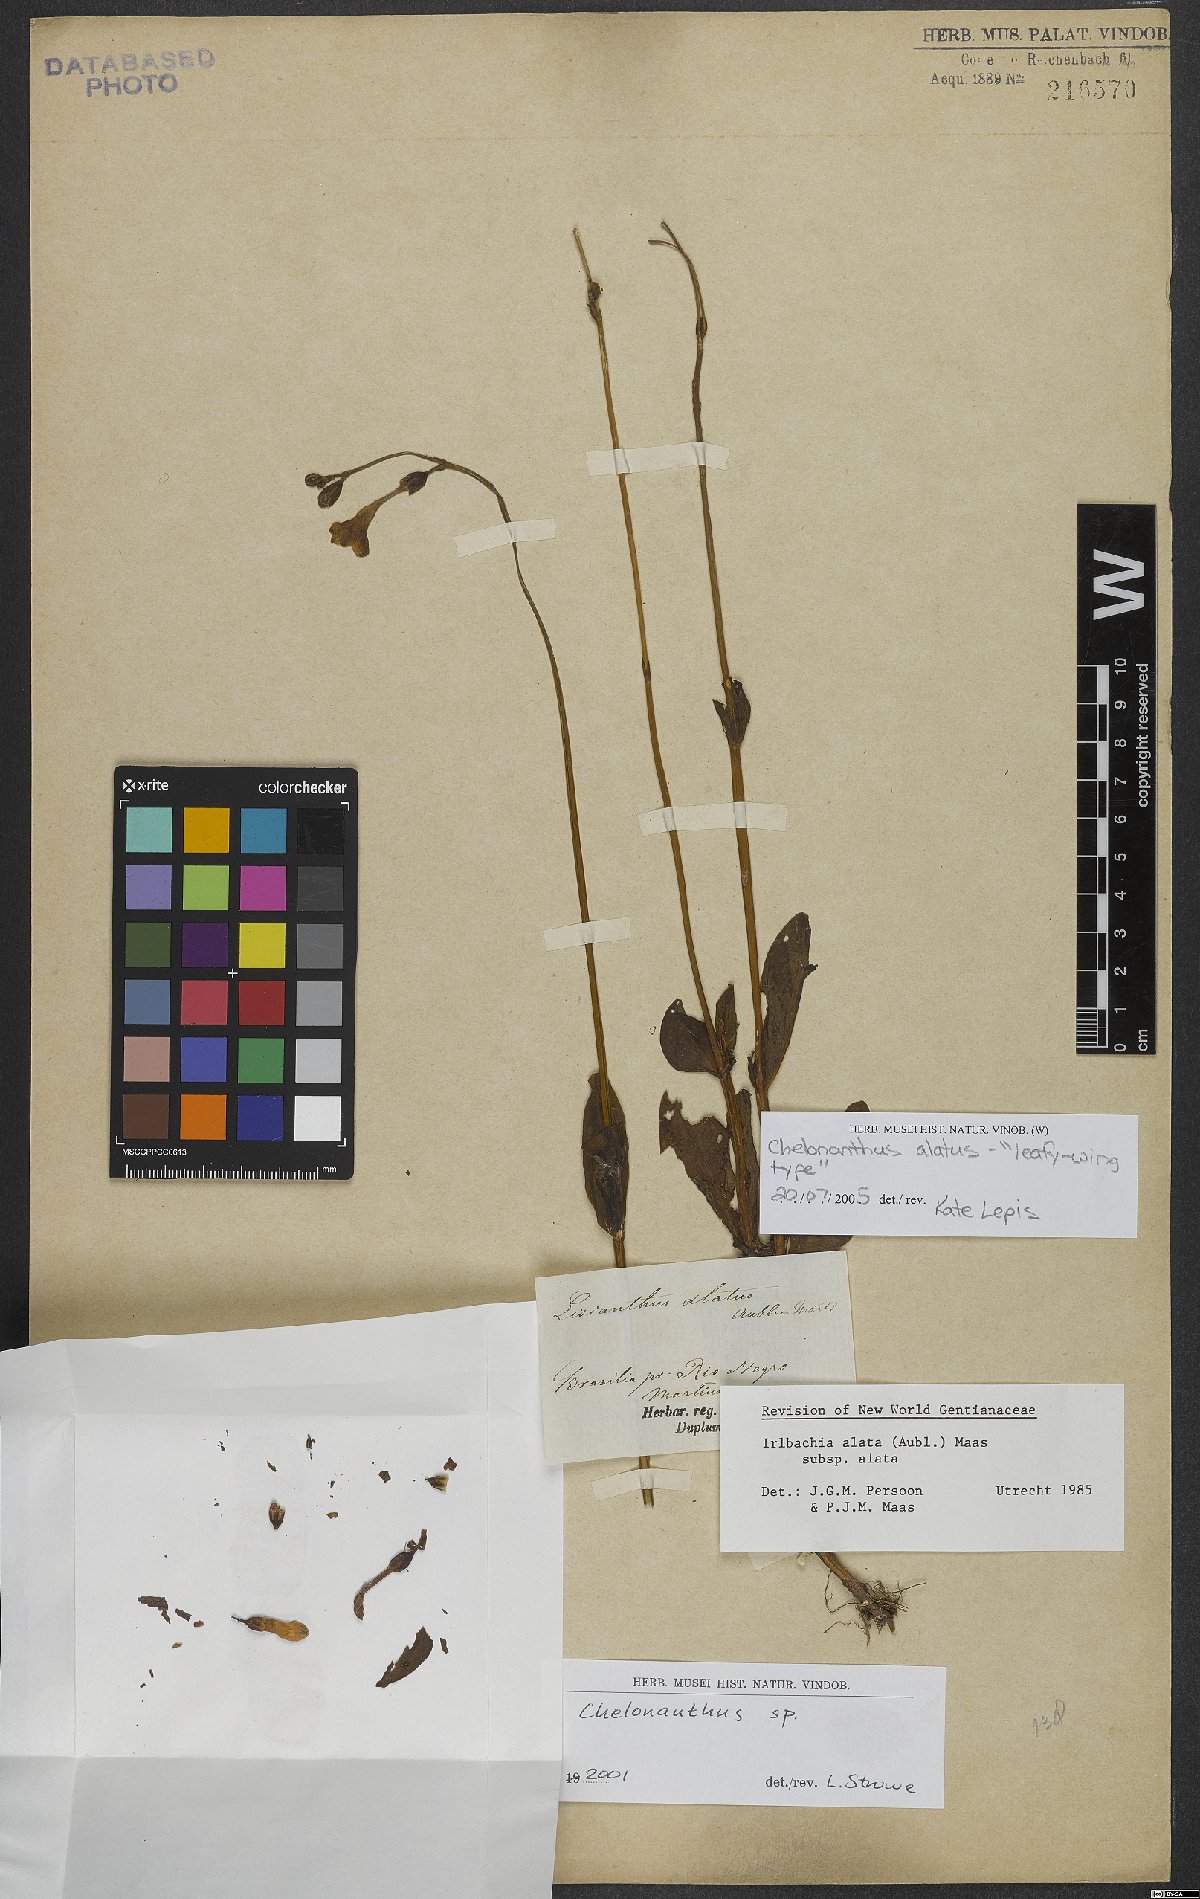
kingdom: Plantae
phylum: Tracheophyta
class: Magnoliopsida
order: Gentianales
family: Gentianaceae
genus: Chelonanthus
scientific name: Chelonanthus alatus
